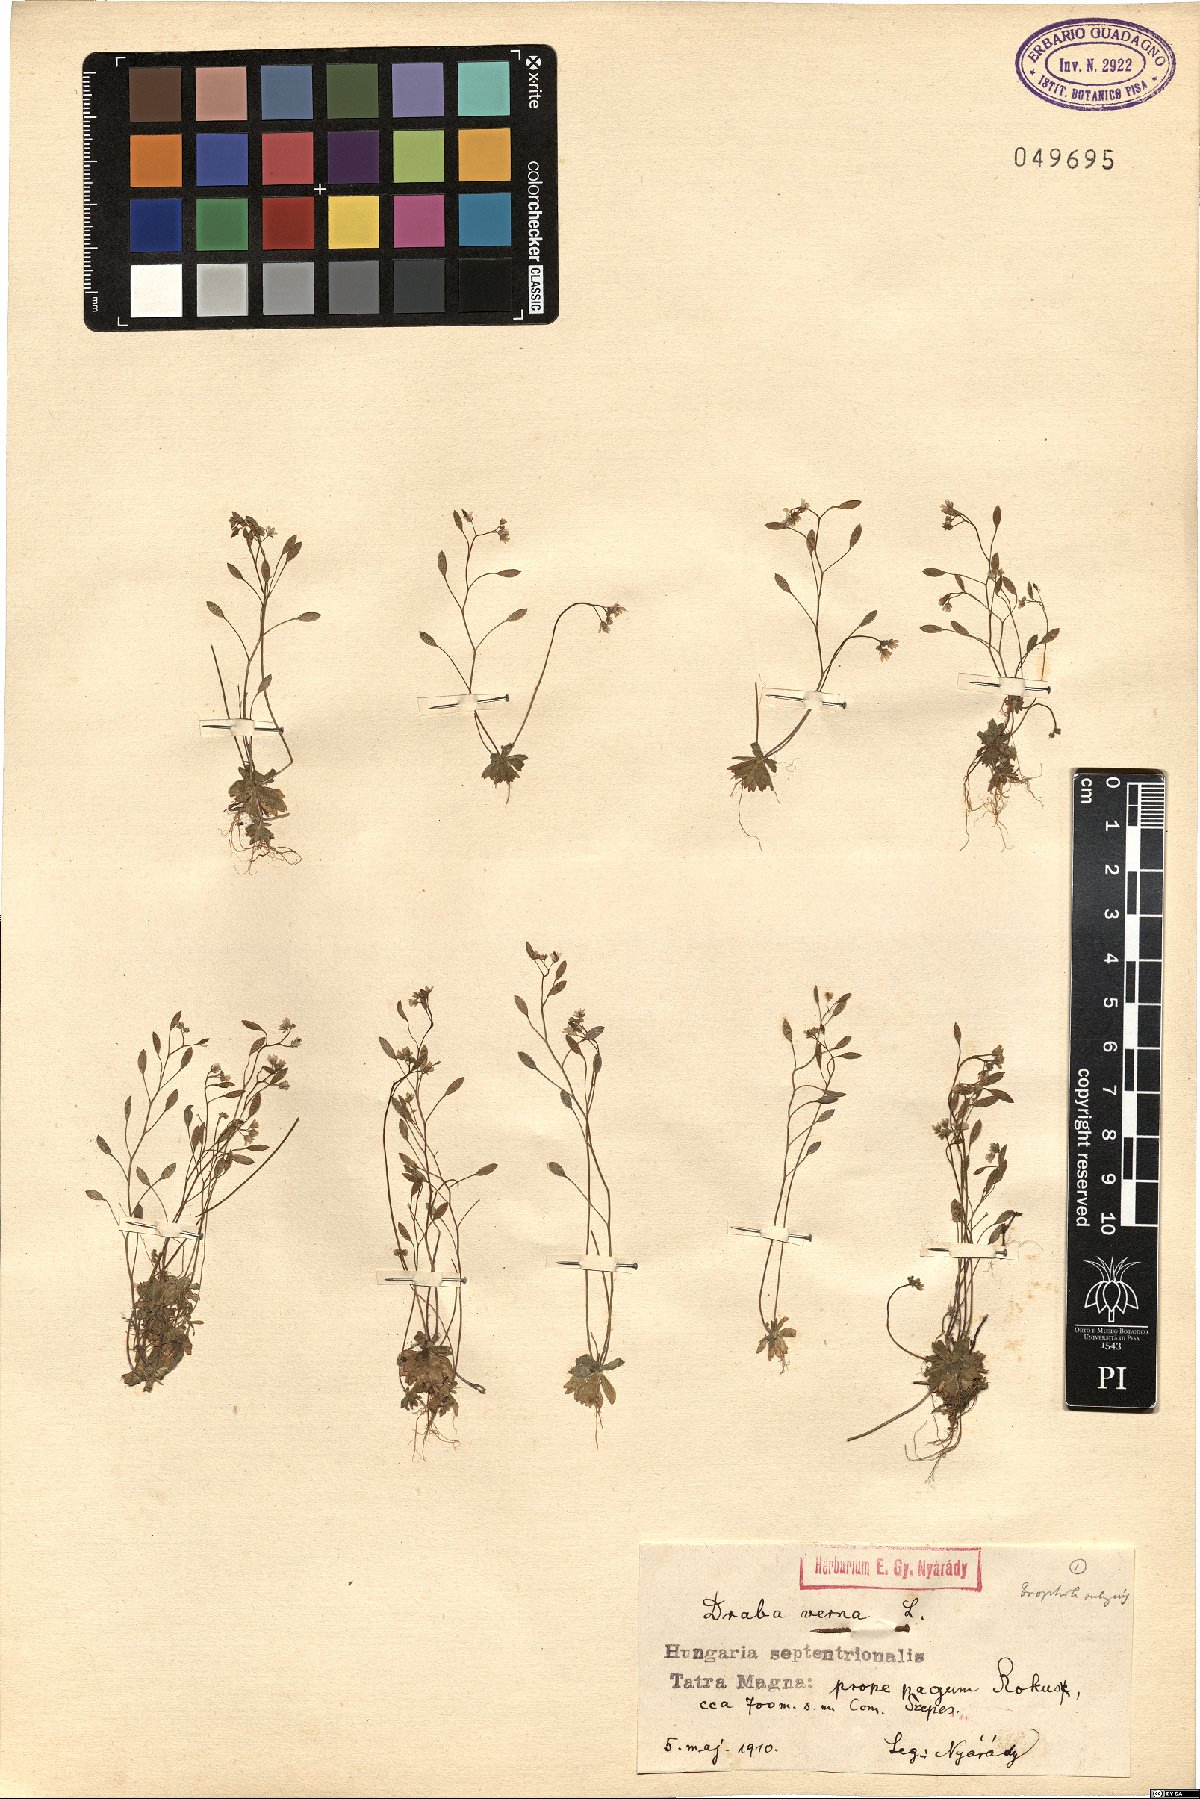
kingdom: Plantae
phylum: Tracheophyta
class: Magnoliopsida
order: Brassicales
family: Brassicaceae
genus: Draba
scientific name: Draba verna
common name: Spring draba
